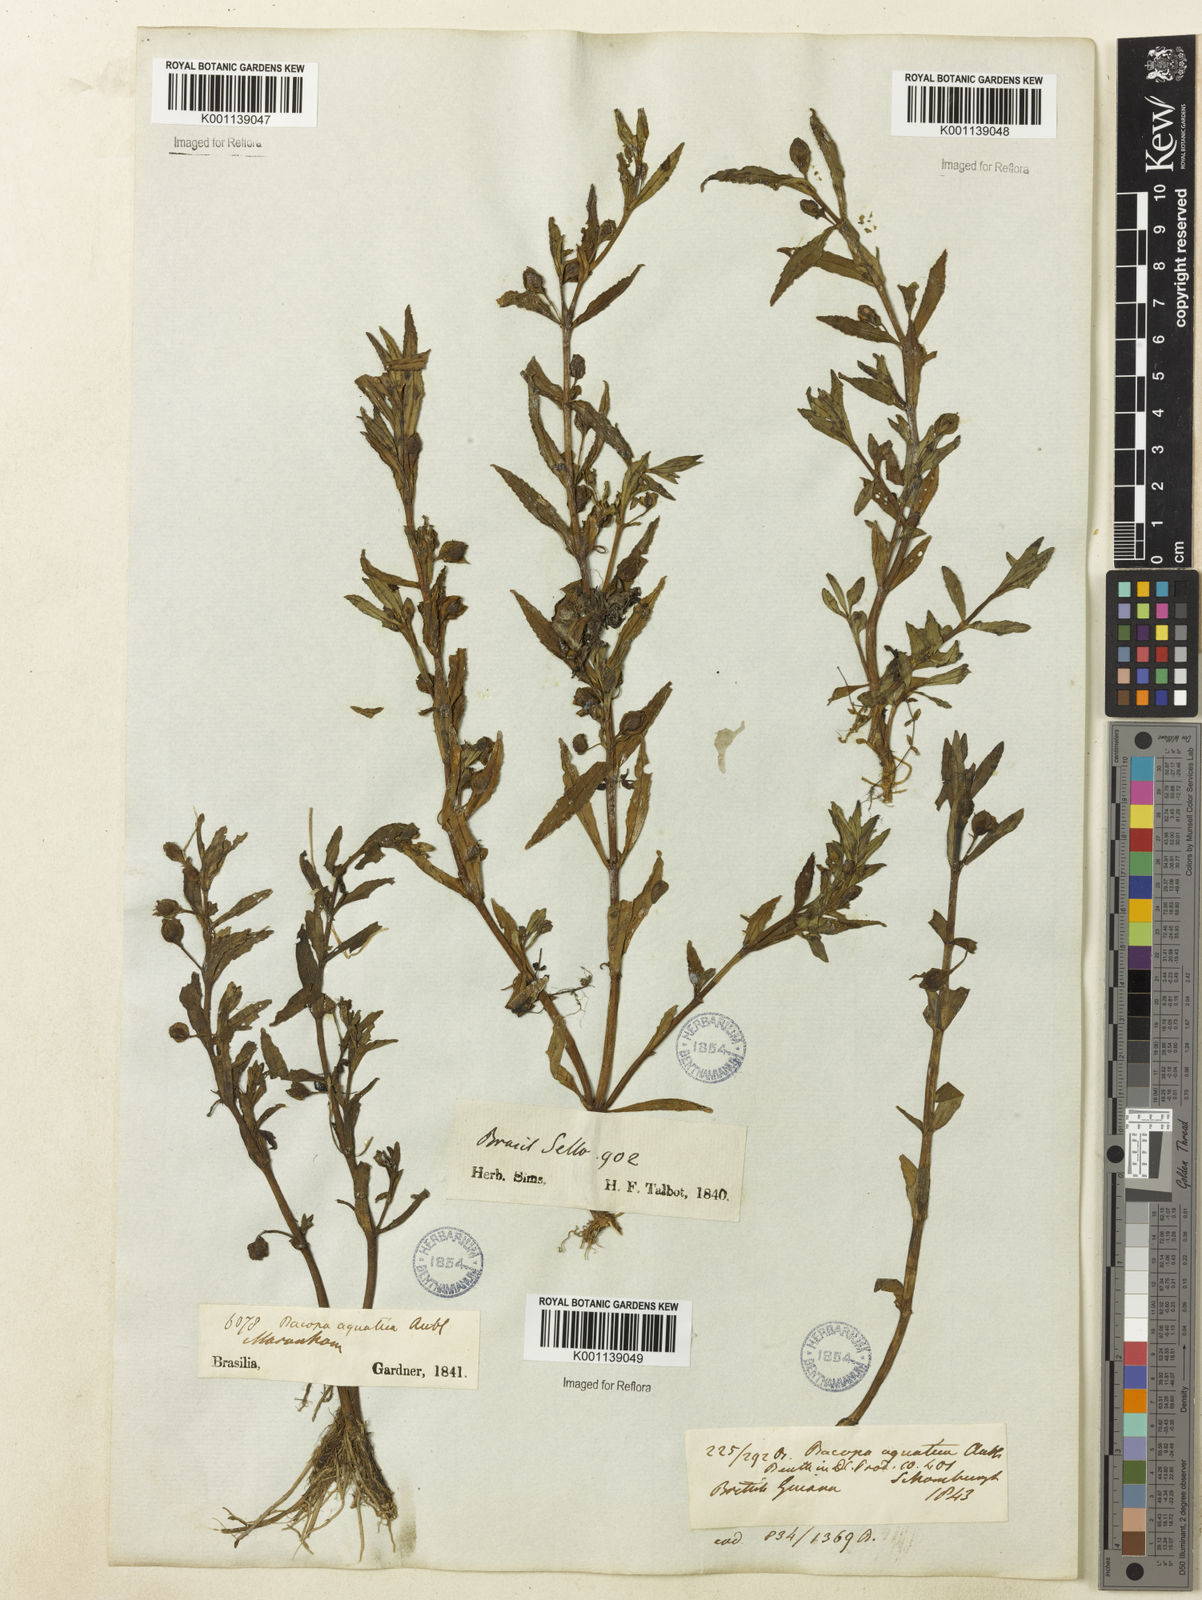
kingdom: Plantae
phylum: Tracheophyta
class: Magnoliopsida
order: Lamiales
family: Plantaginaceae
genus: Bacopa
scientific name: Bacopa aquatica
